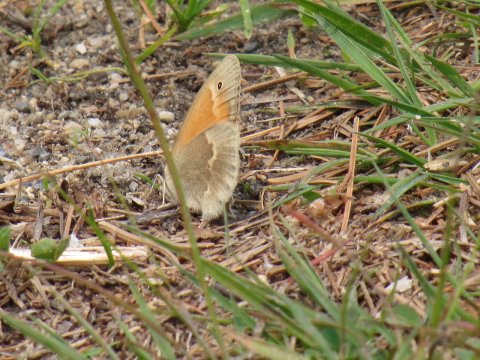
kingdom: Animalia
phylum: Arthropoda
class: Insecta
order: Lepidoptera
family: Nymphalidae
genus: Coenonympha
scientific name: Coenonympha tullia
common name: Large Heath
